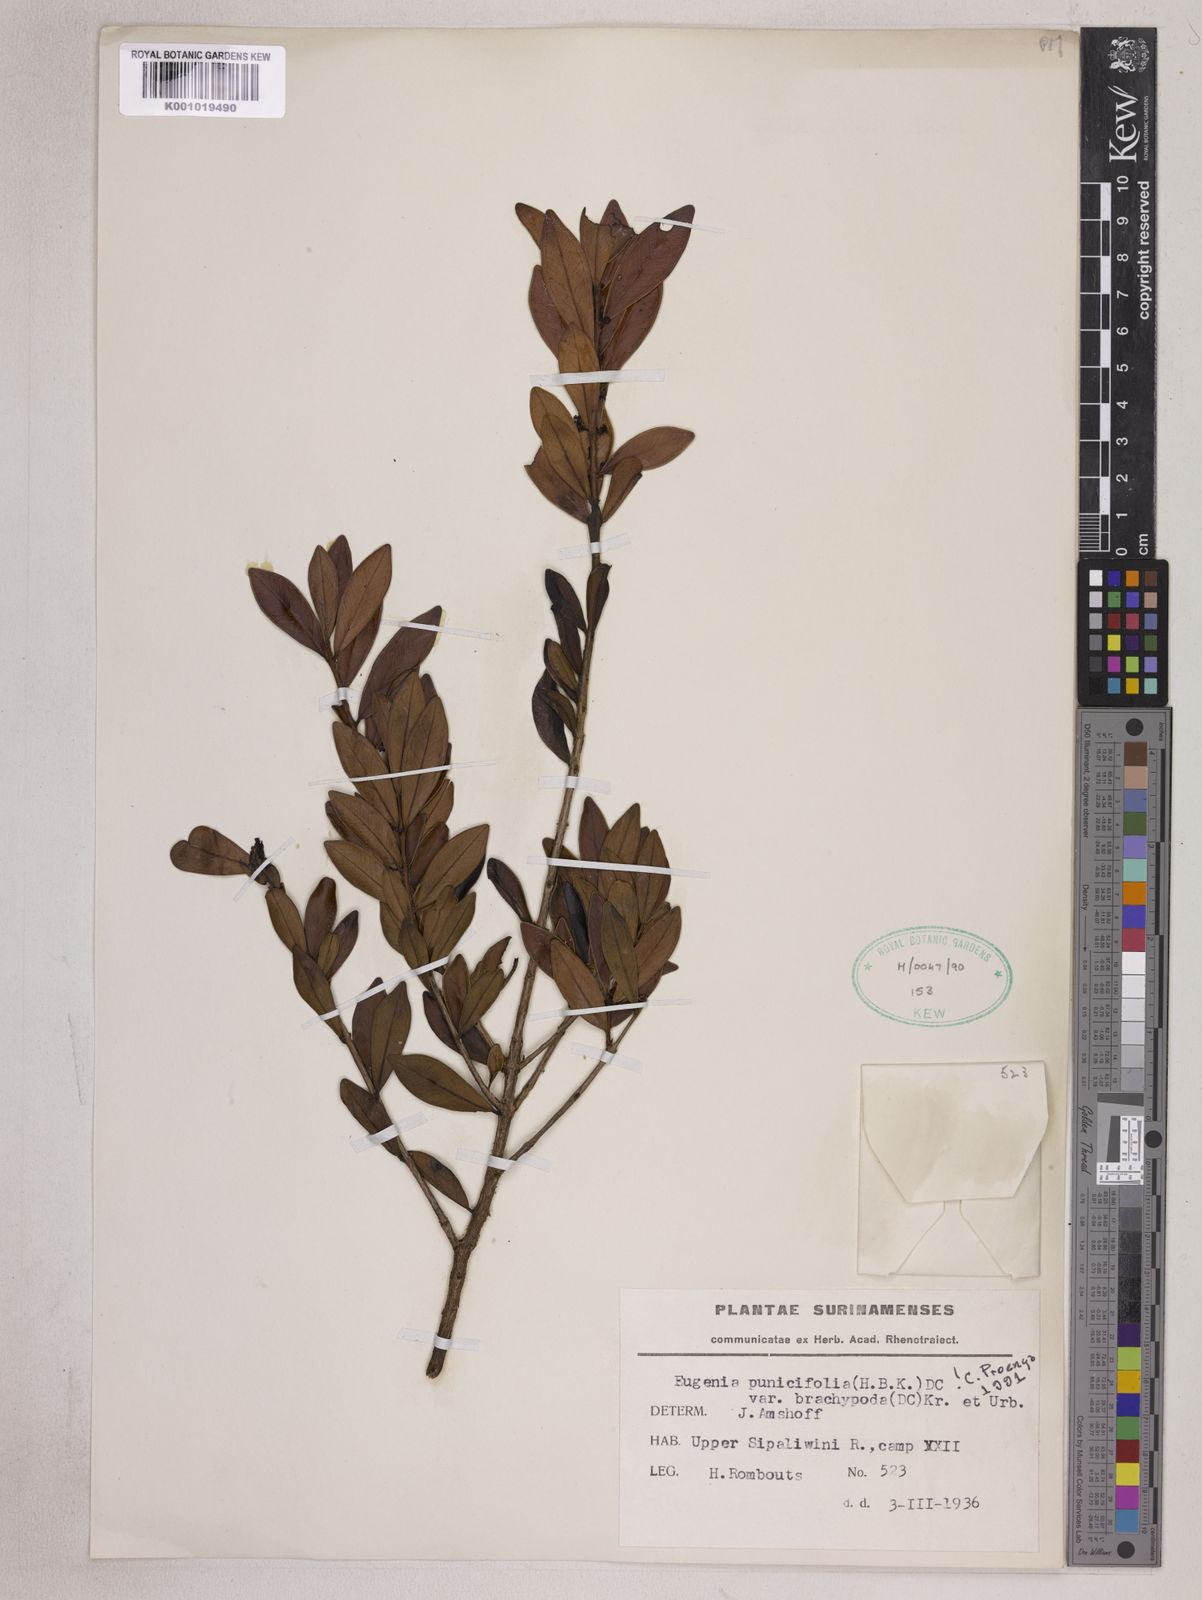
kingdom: Plantae
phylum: Tracheophyta
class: Magnoliopsida
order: Myrtales
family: Myrtaceae
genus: Eugenia
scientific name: Eugenia punicifolia
